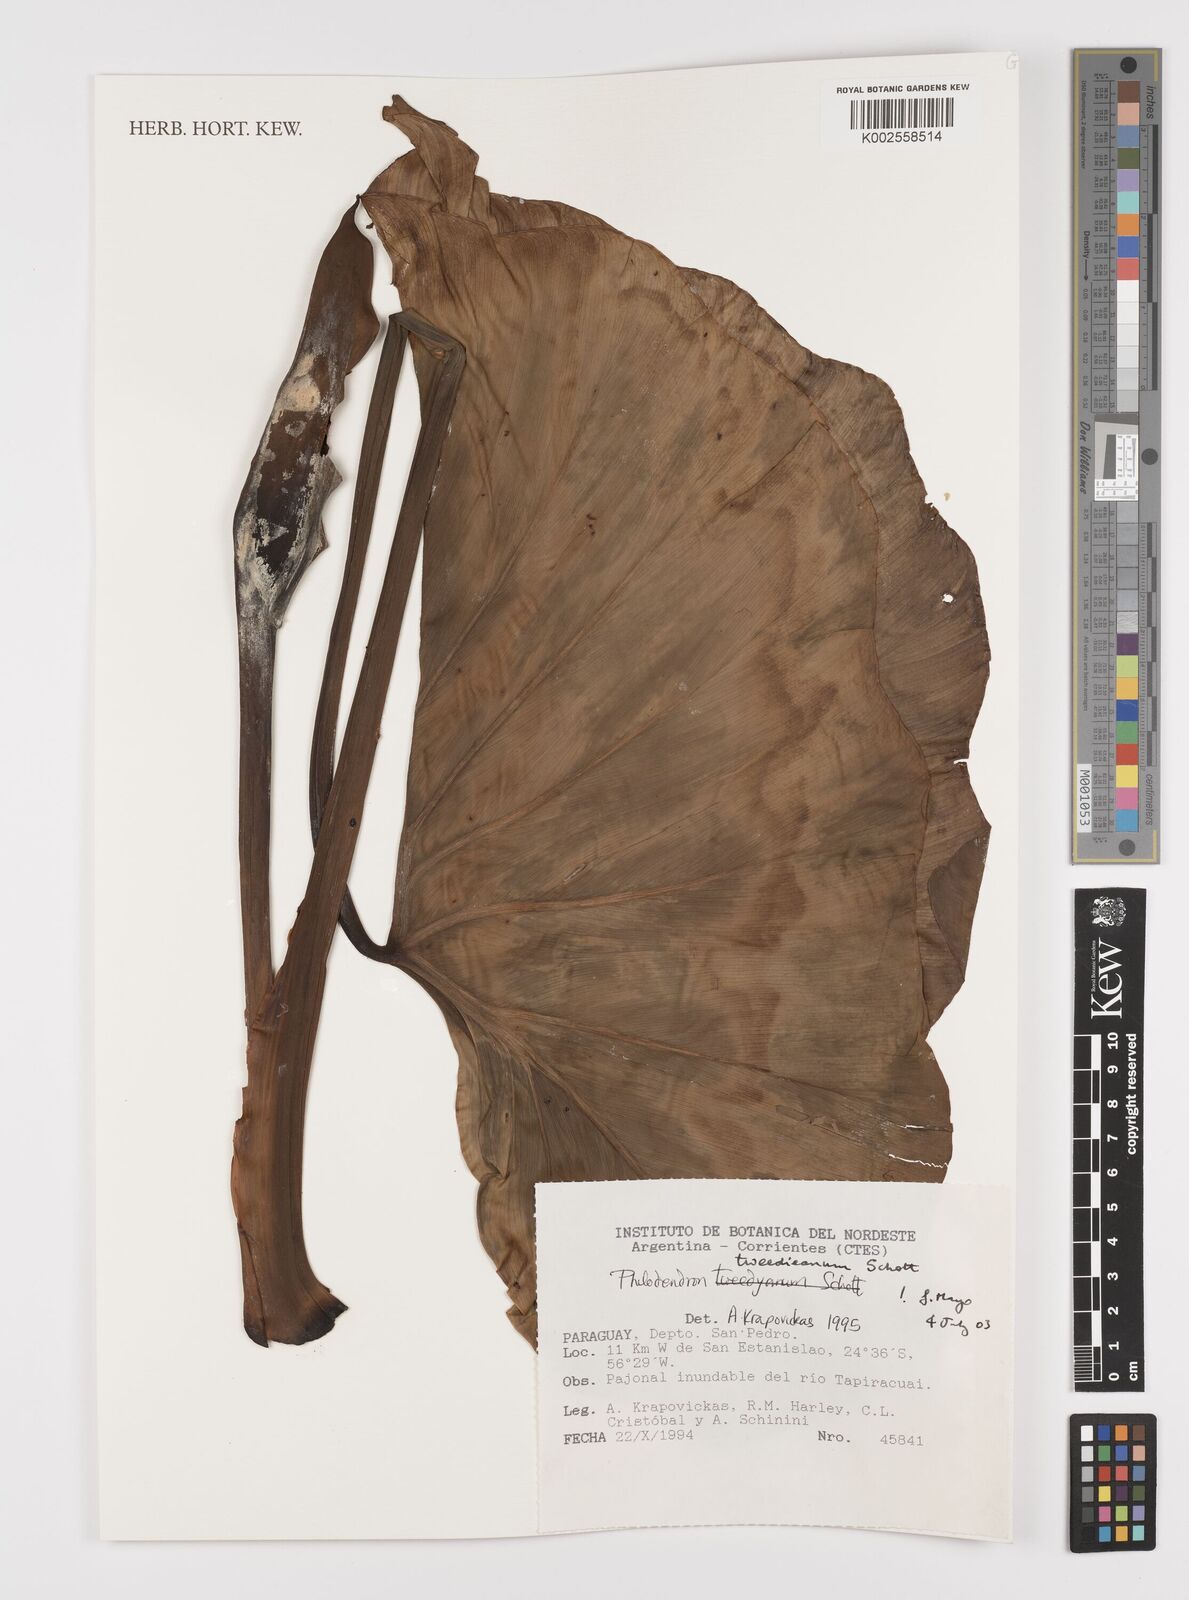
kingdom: Plantae
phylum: Tracheophyta
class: Liliopsida
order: Alismatales
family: Araceae
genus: Thaumatophyllum
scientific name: Thaumatophyllum tweedieanum
